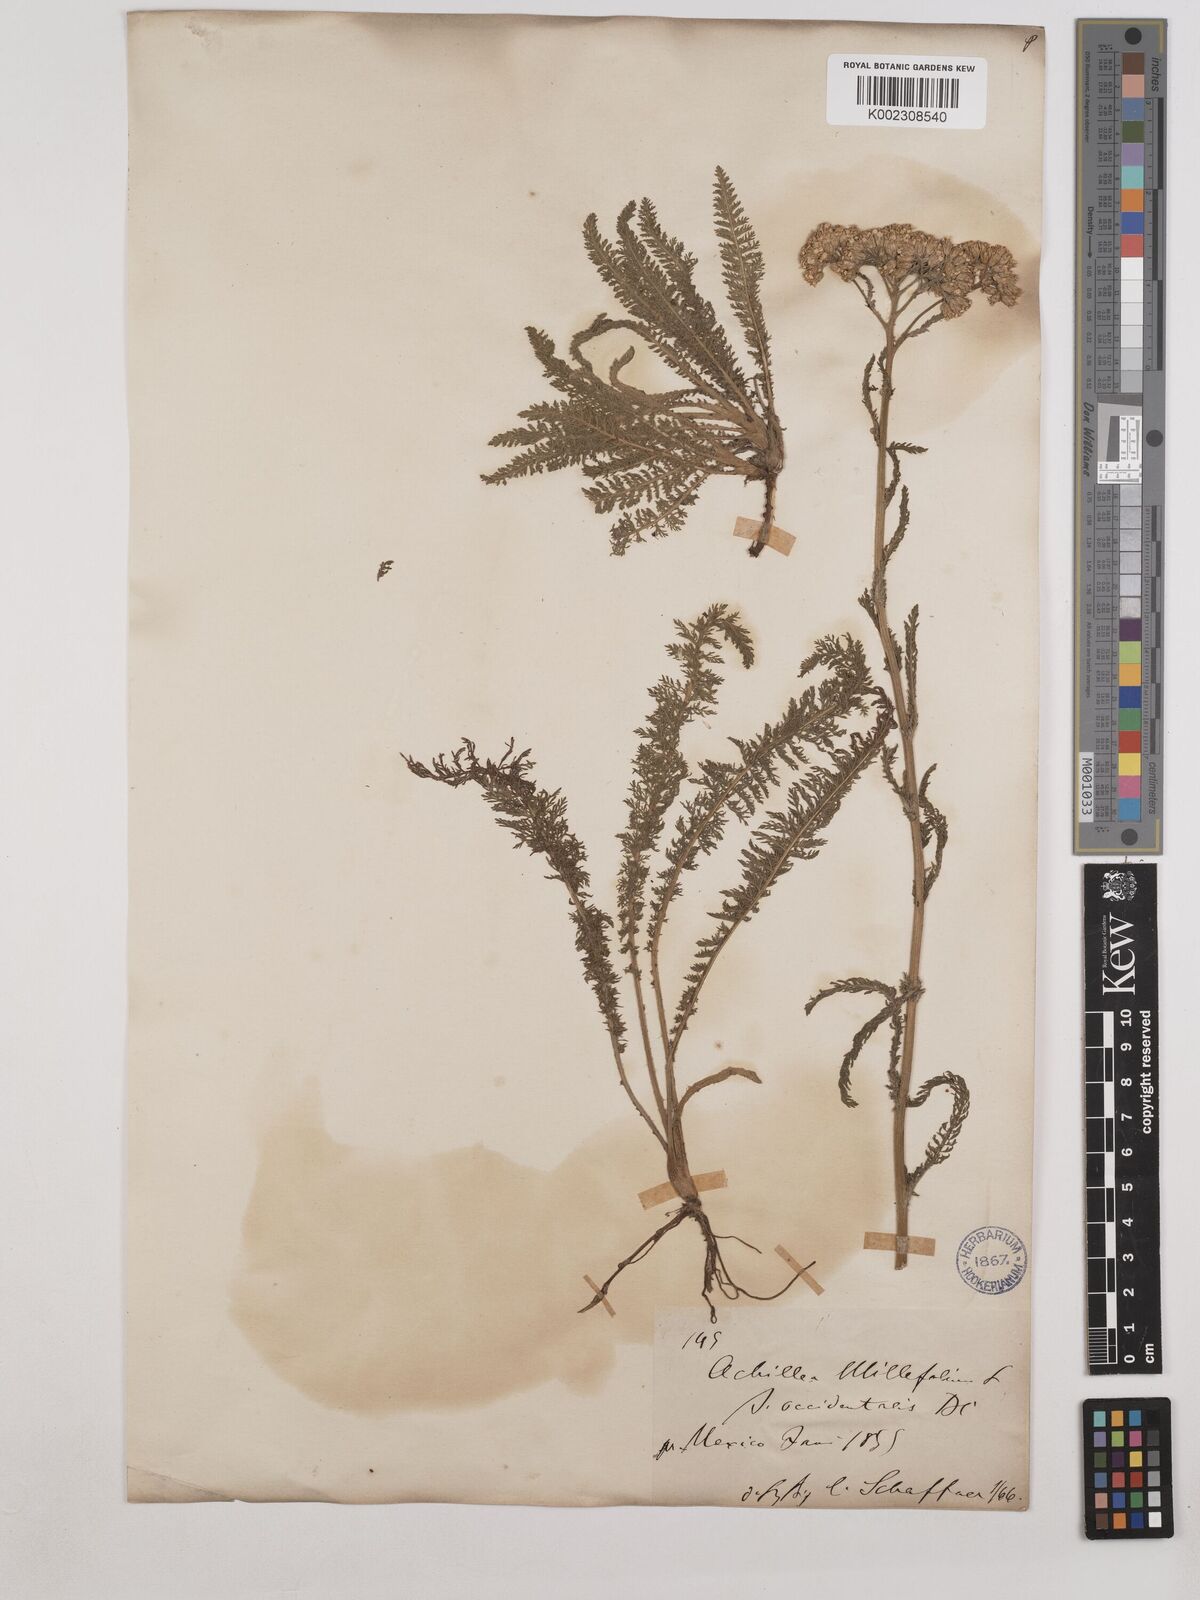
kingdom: Plantae
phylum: Tracheophyta
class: Magnoliopsida
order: Asterales
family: Asteraceae
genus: Achillea
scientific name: Achillea millefolium
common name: Yarrow
